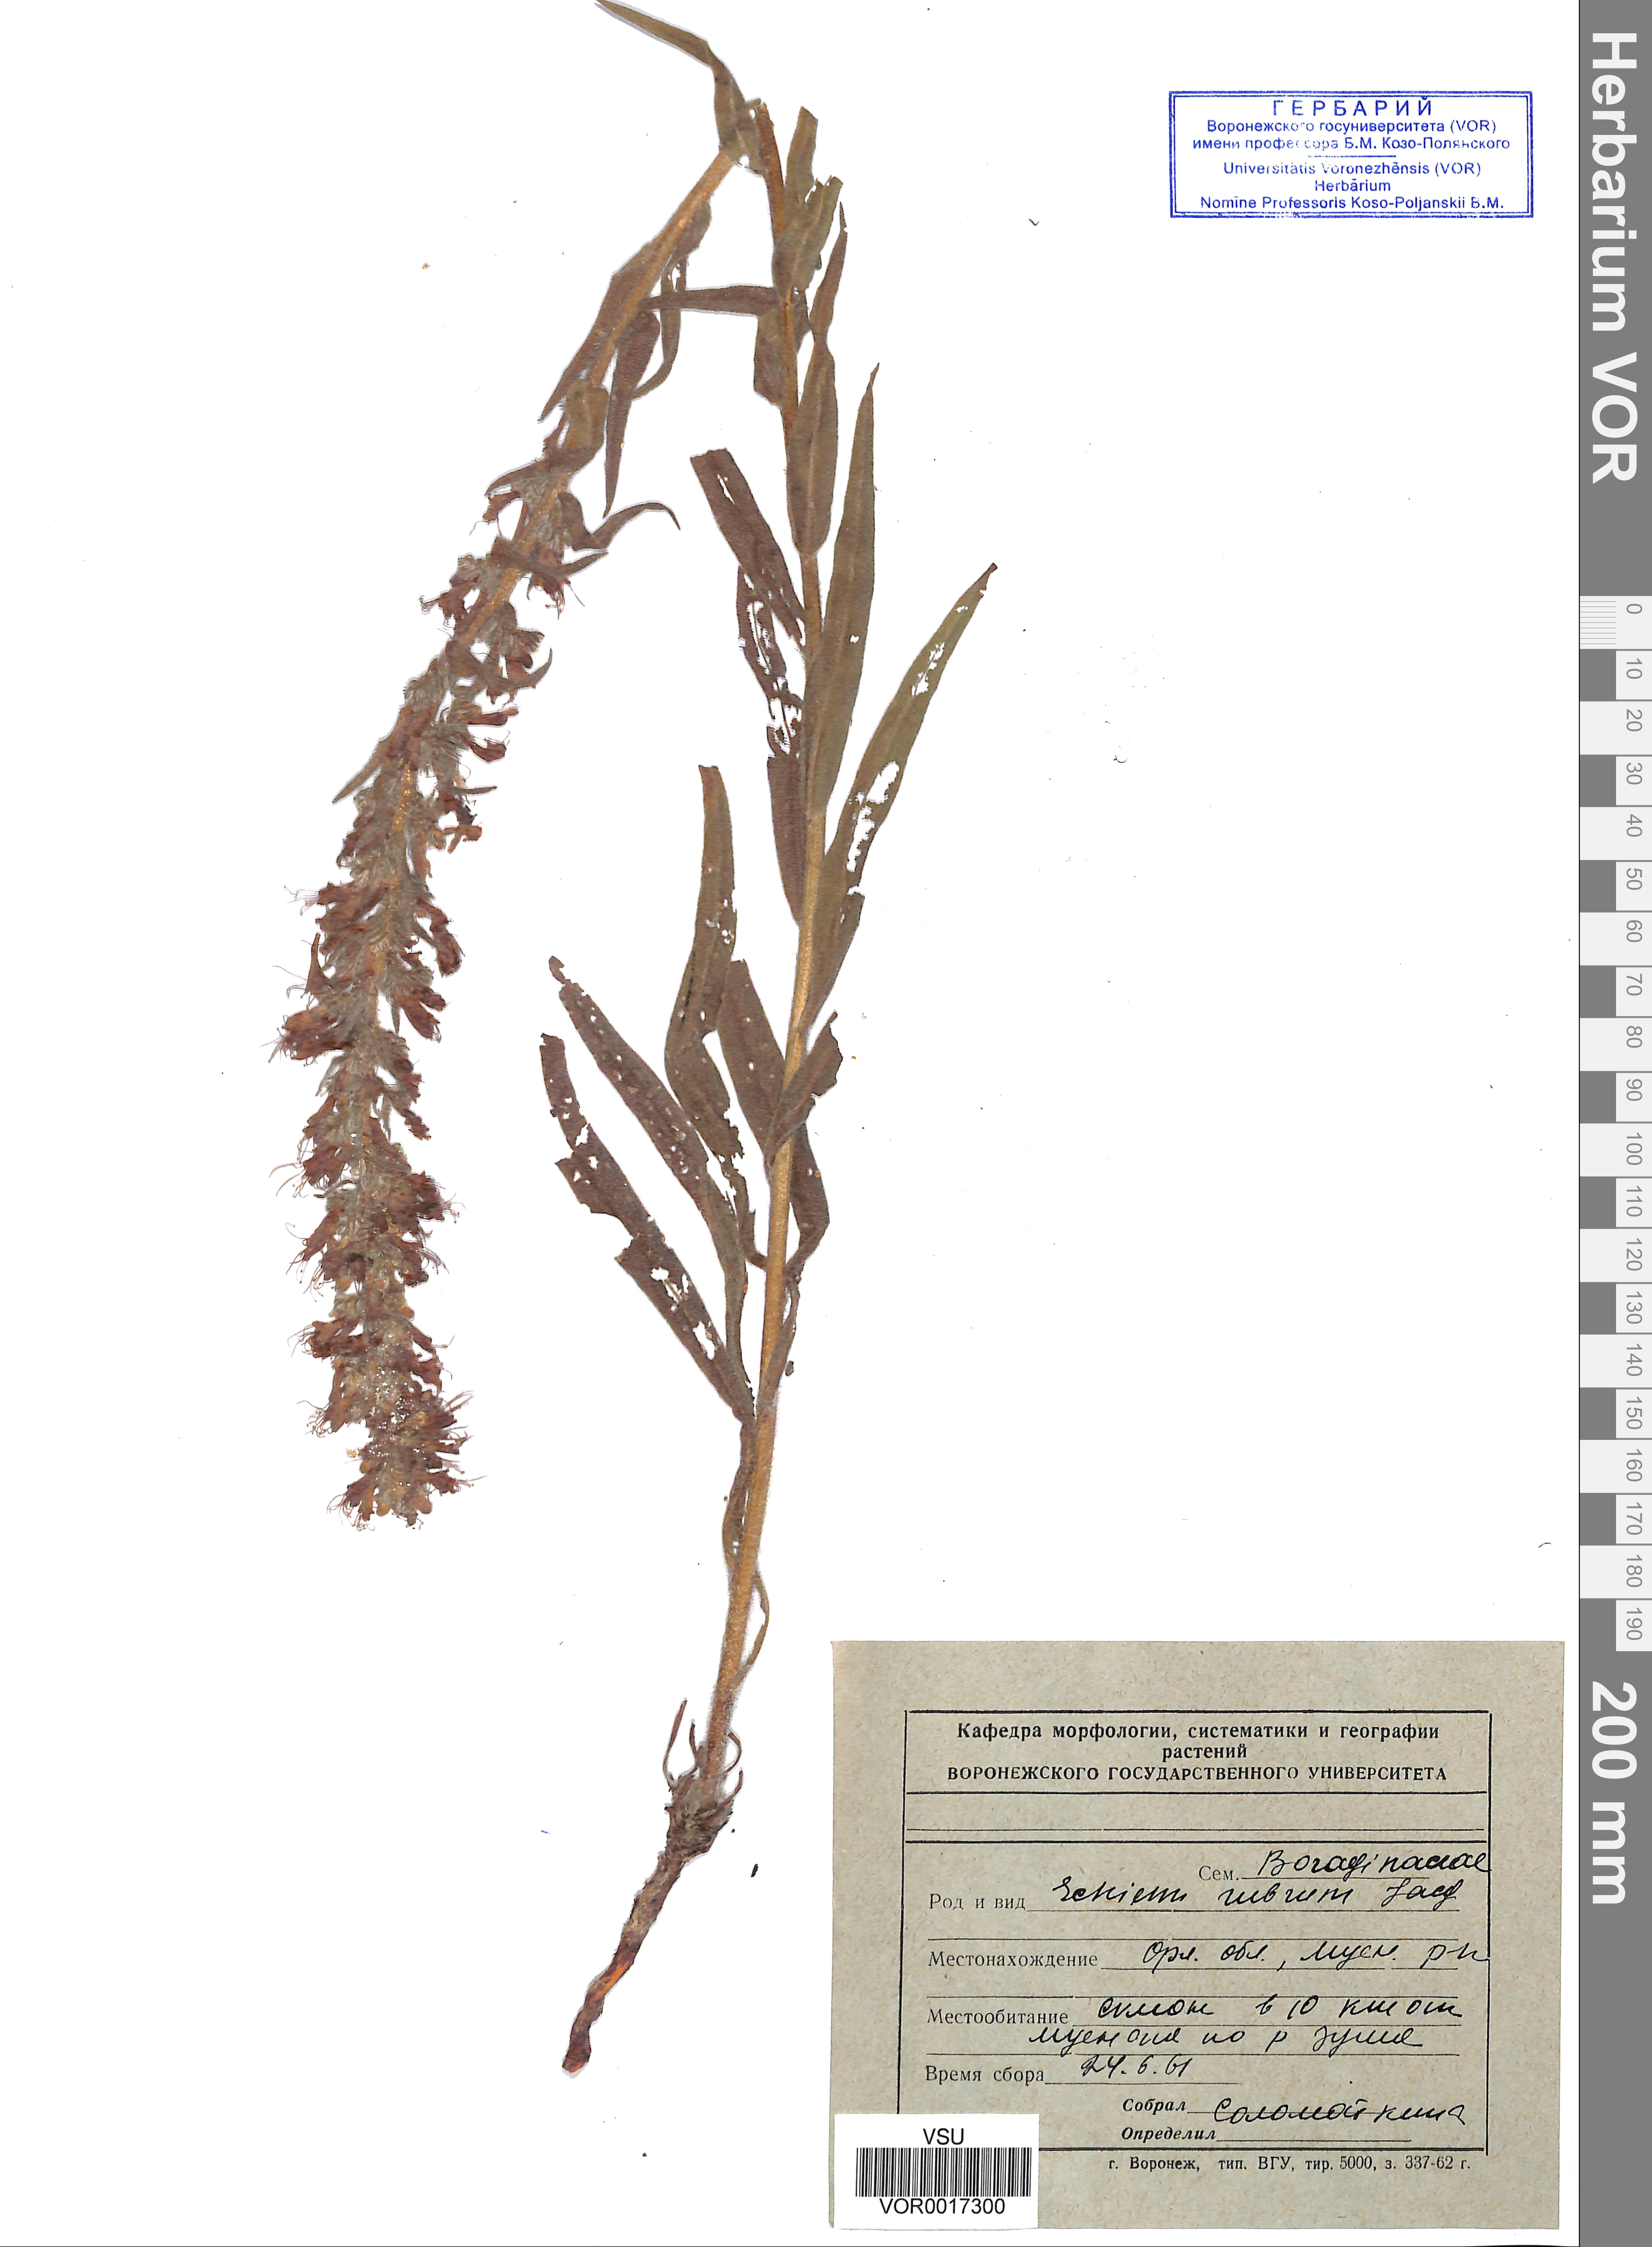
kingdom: Plantae
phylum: Tracheophyta
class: Magnoliopsida
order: Boraginales
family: Boraginaceae
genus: Pontechium
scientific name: Pontechium maculatum
